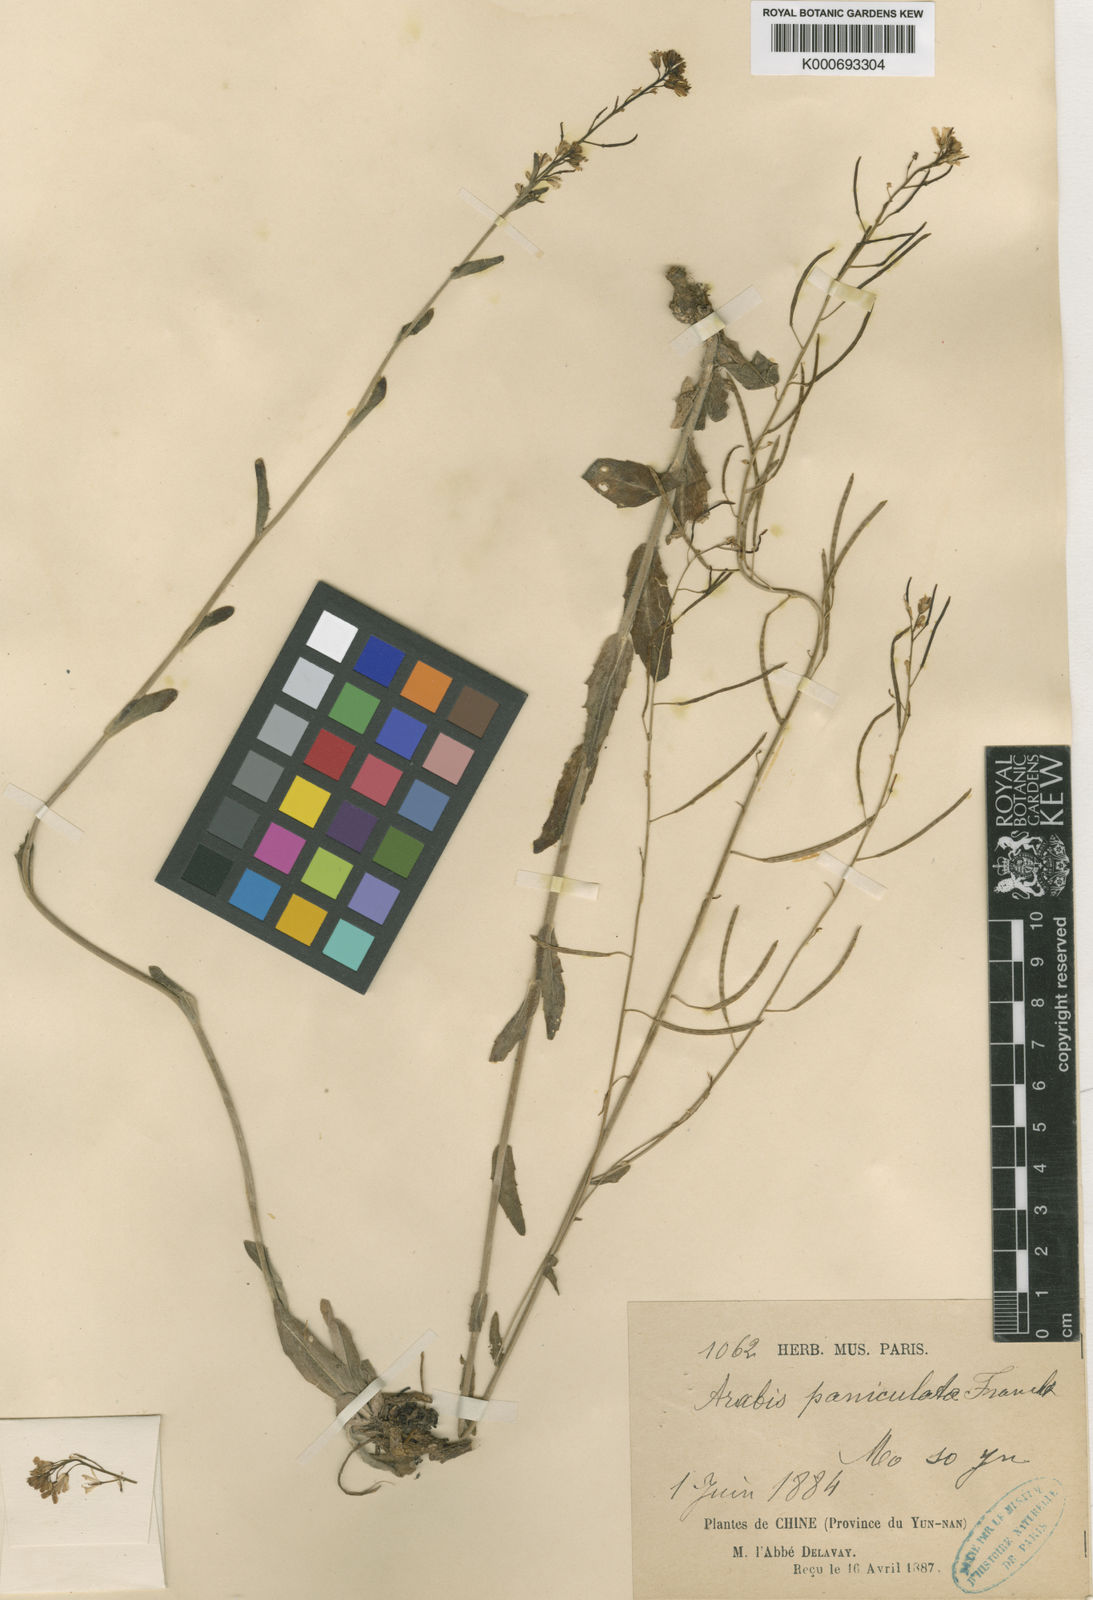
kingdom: Plantae
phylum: Tracheophyta
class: Magnoliopsida
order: Brassicales
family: Brassicaceae
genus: Arabis
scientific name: Arabis paniculata
